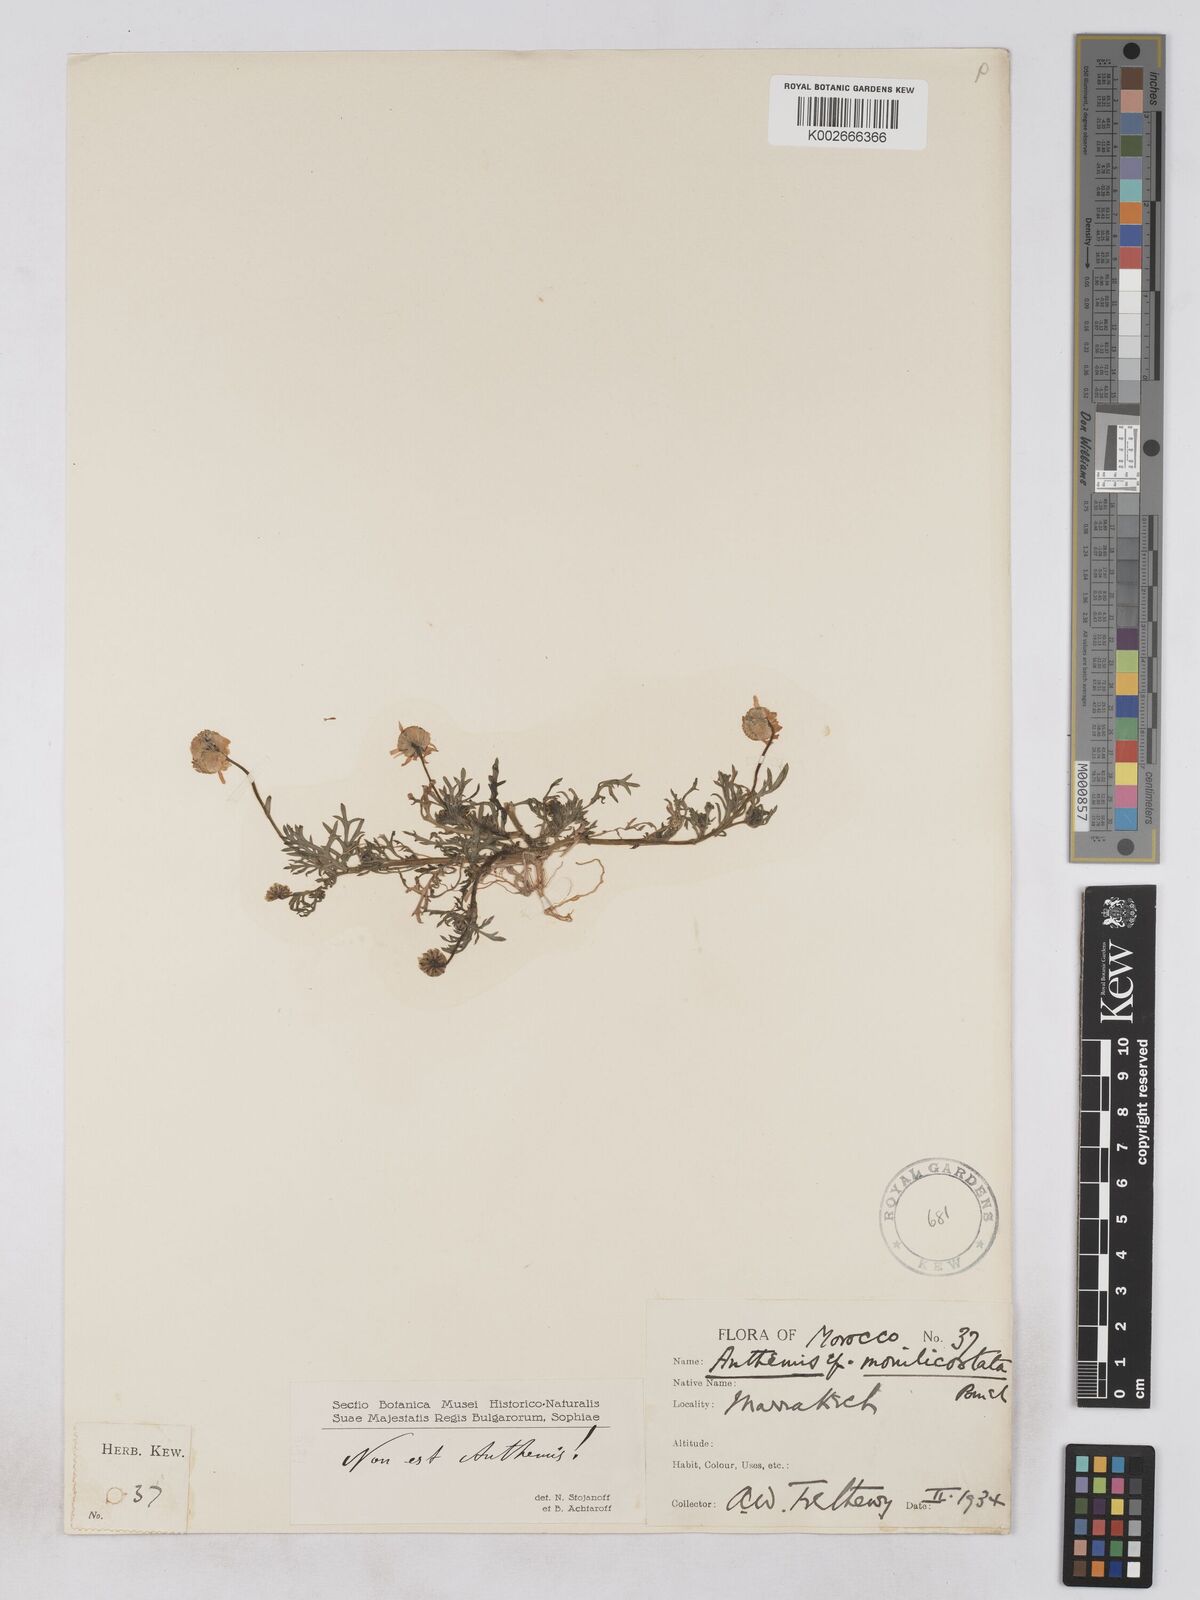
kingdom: Plantae
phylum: Tracheophyta
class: Magnoliopsida
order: Asterales
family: Asteraceae
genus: Otoglyphis
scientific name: Otoglyphis pubescens
